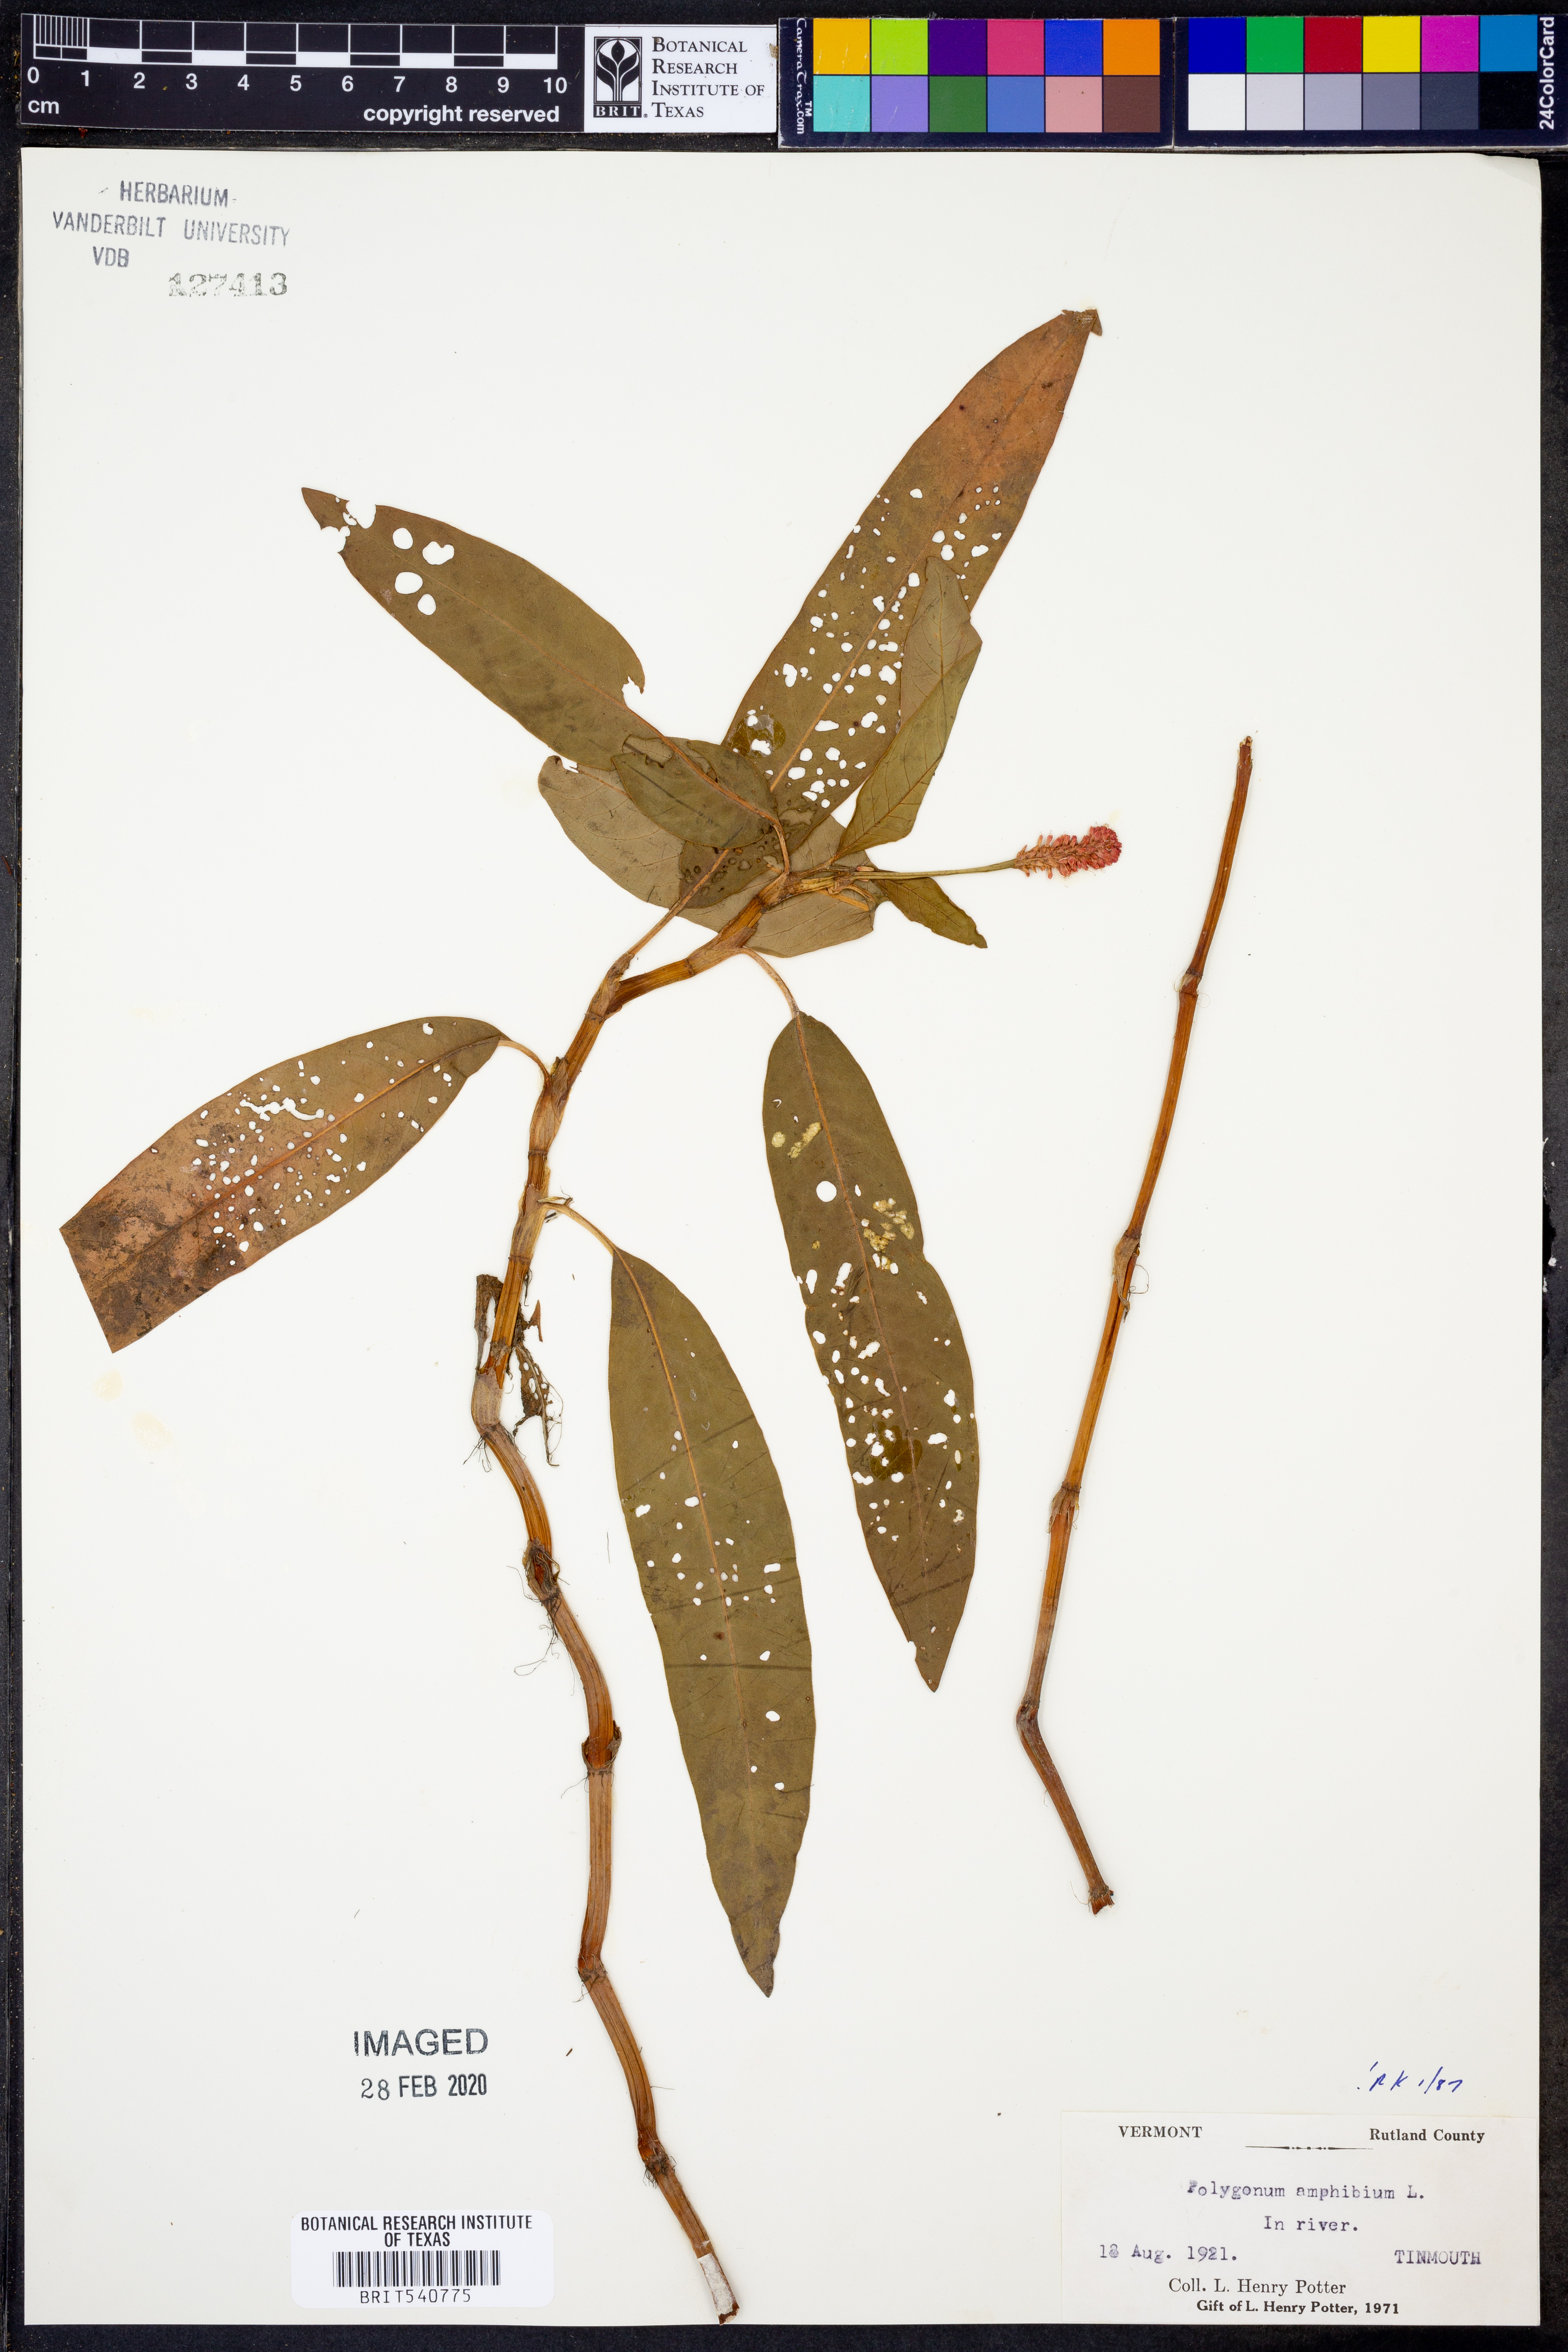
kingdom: Plantae
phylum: Tracheophyta
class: Magnoliopsida
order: Caryophyllales
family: Polygonaceae
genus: Persicaria
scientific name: Persicaria amphibia
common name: Amphibious bistort
